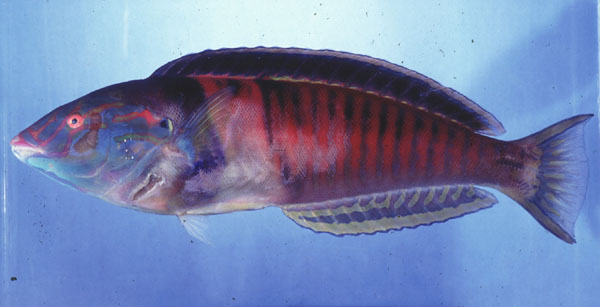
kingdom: Animalia
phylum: Chordata
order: Perciformes
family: Labridae
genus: Hologymnosus
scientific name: Hologymnosus doliatus
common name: Pastel ringwrasse
